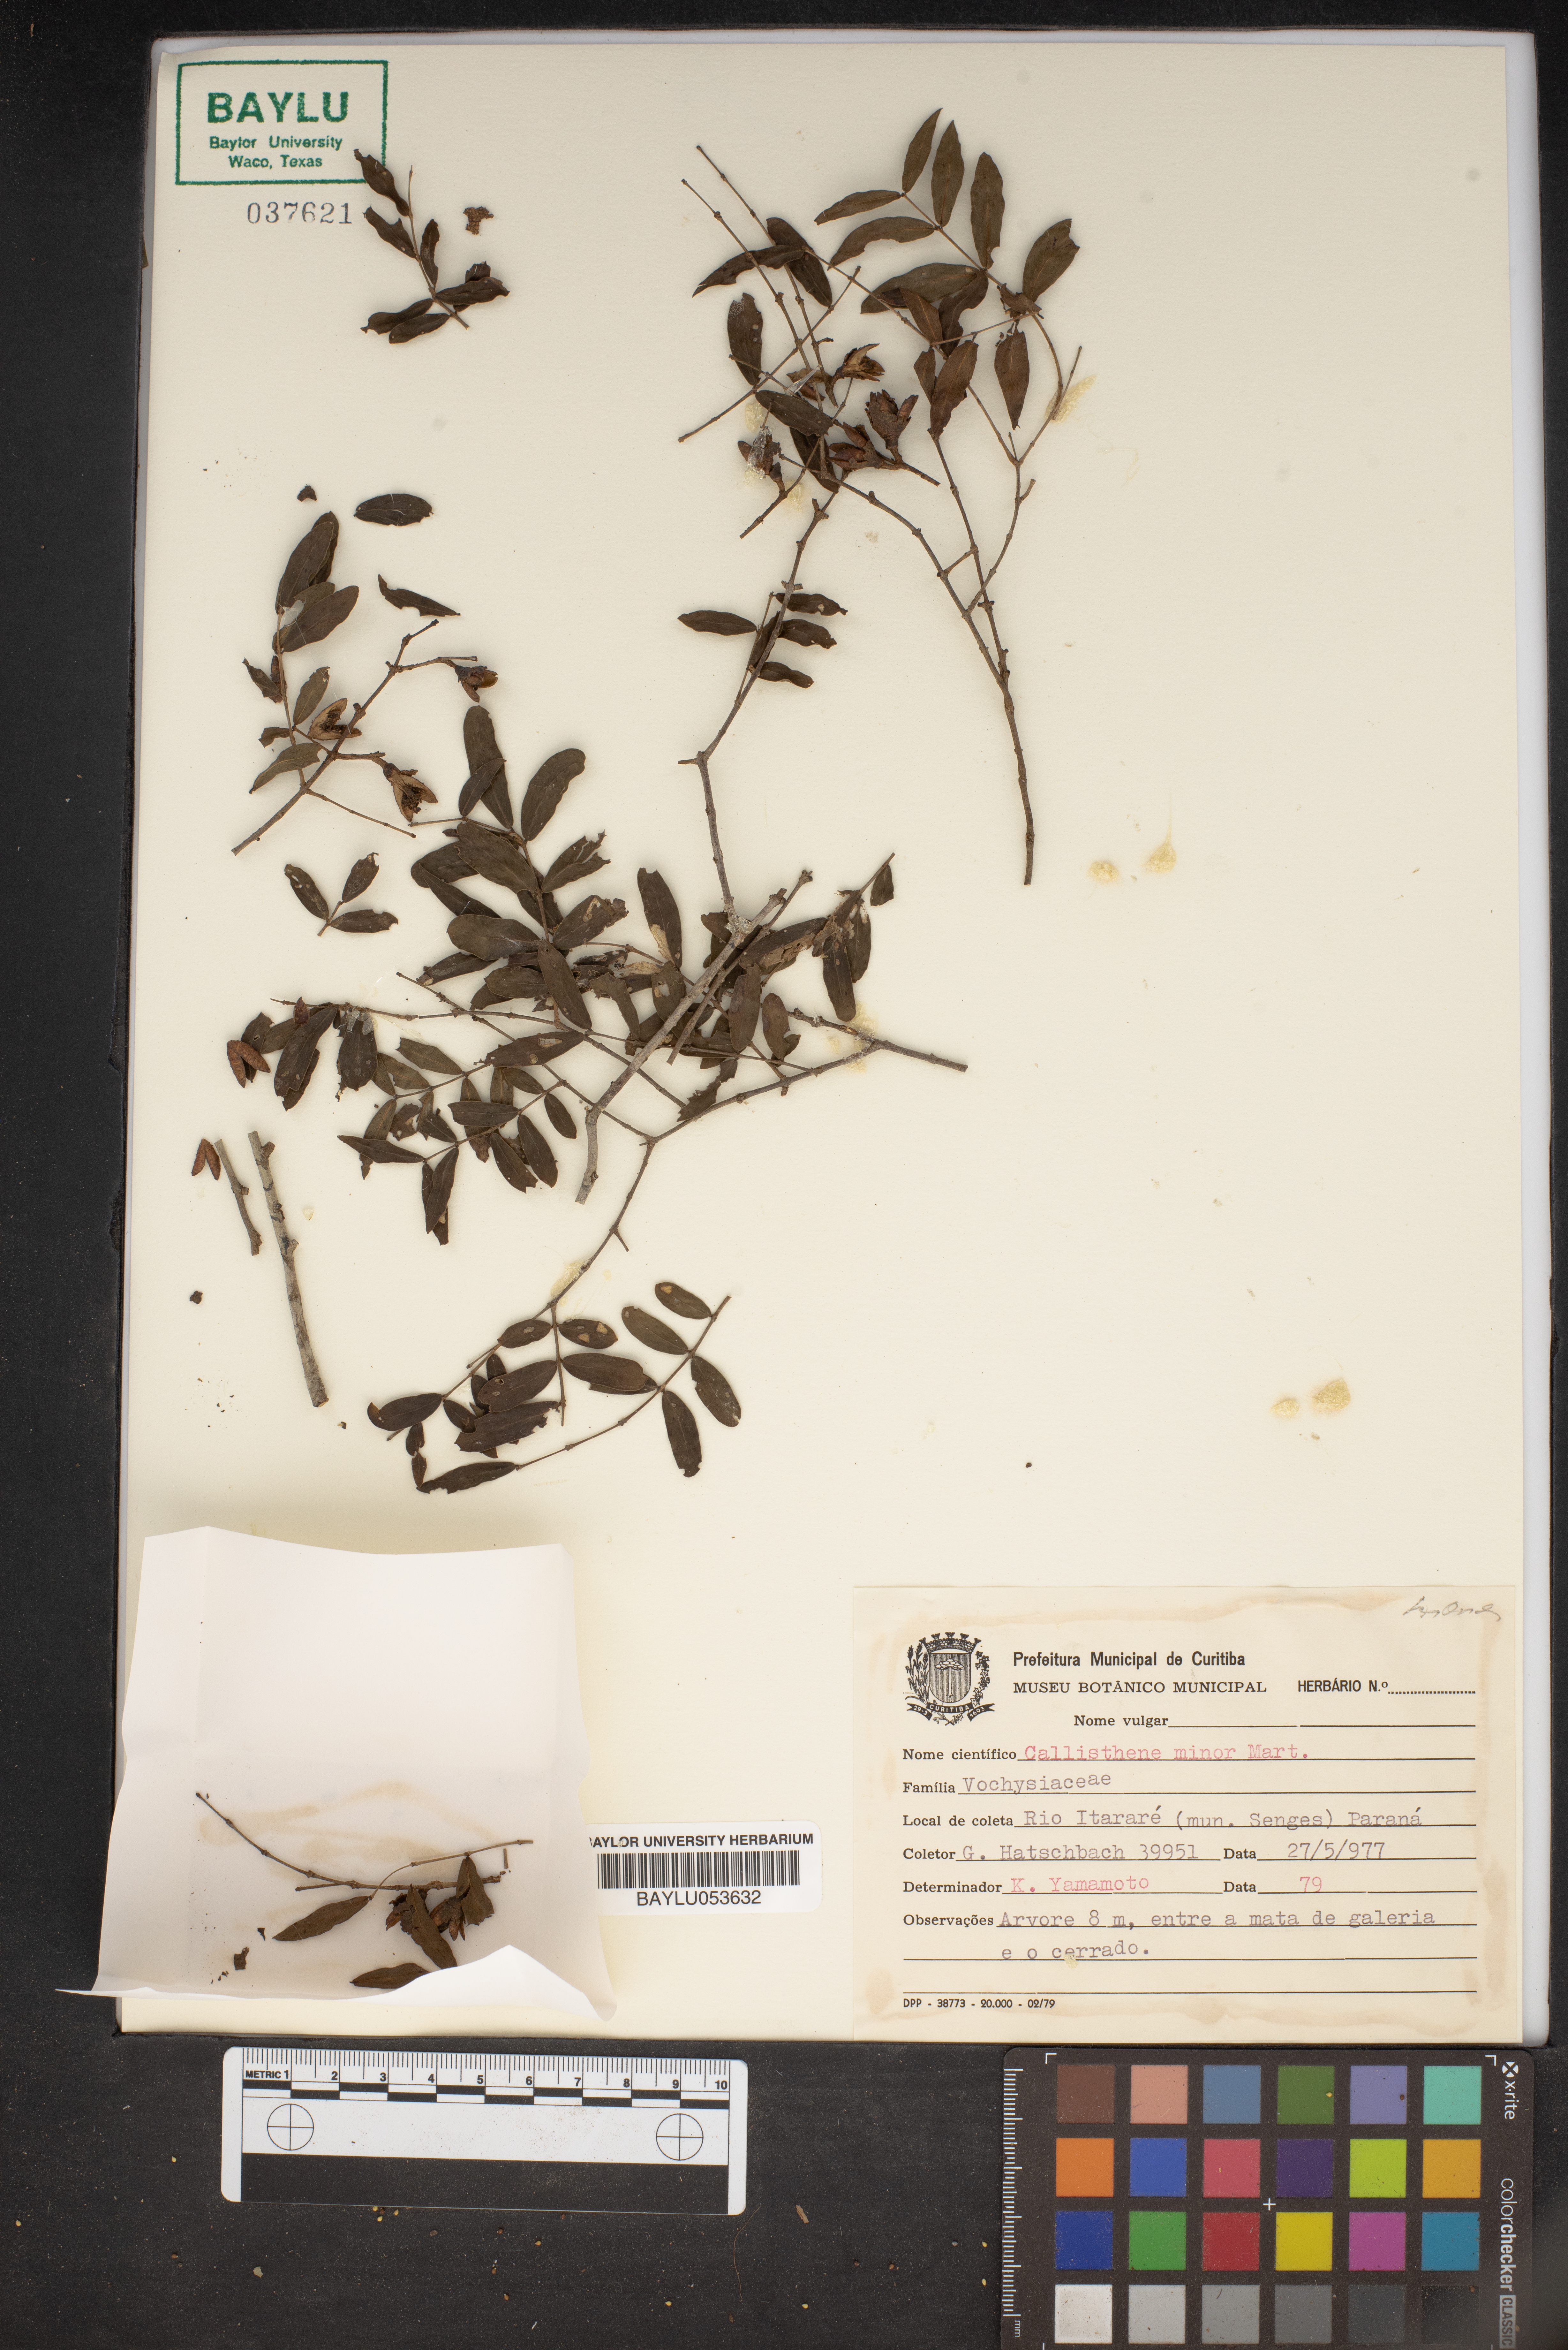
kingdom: Plantae
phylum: Tracheophyta
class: Magnoliopsida
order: Myrtales
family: Vochysiaceae
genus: Callisthene
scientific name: Callisthene minor
